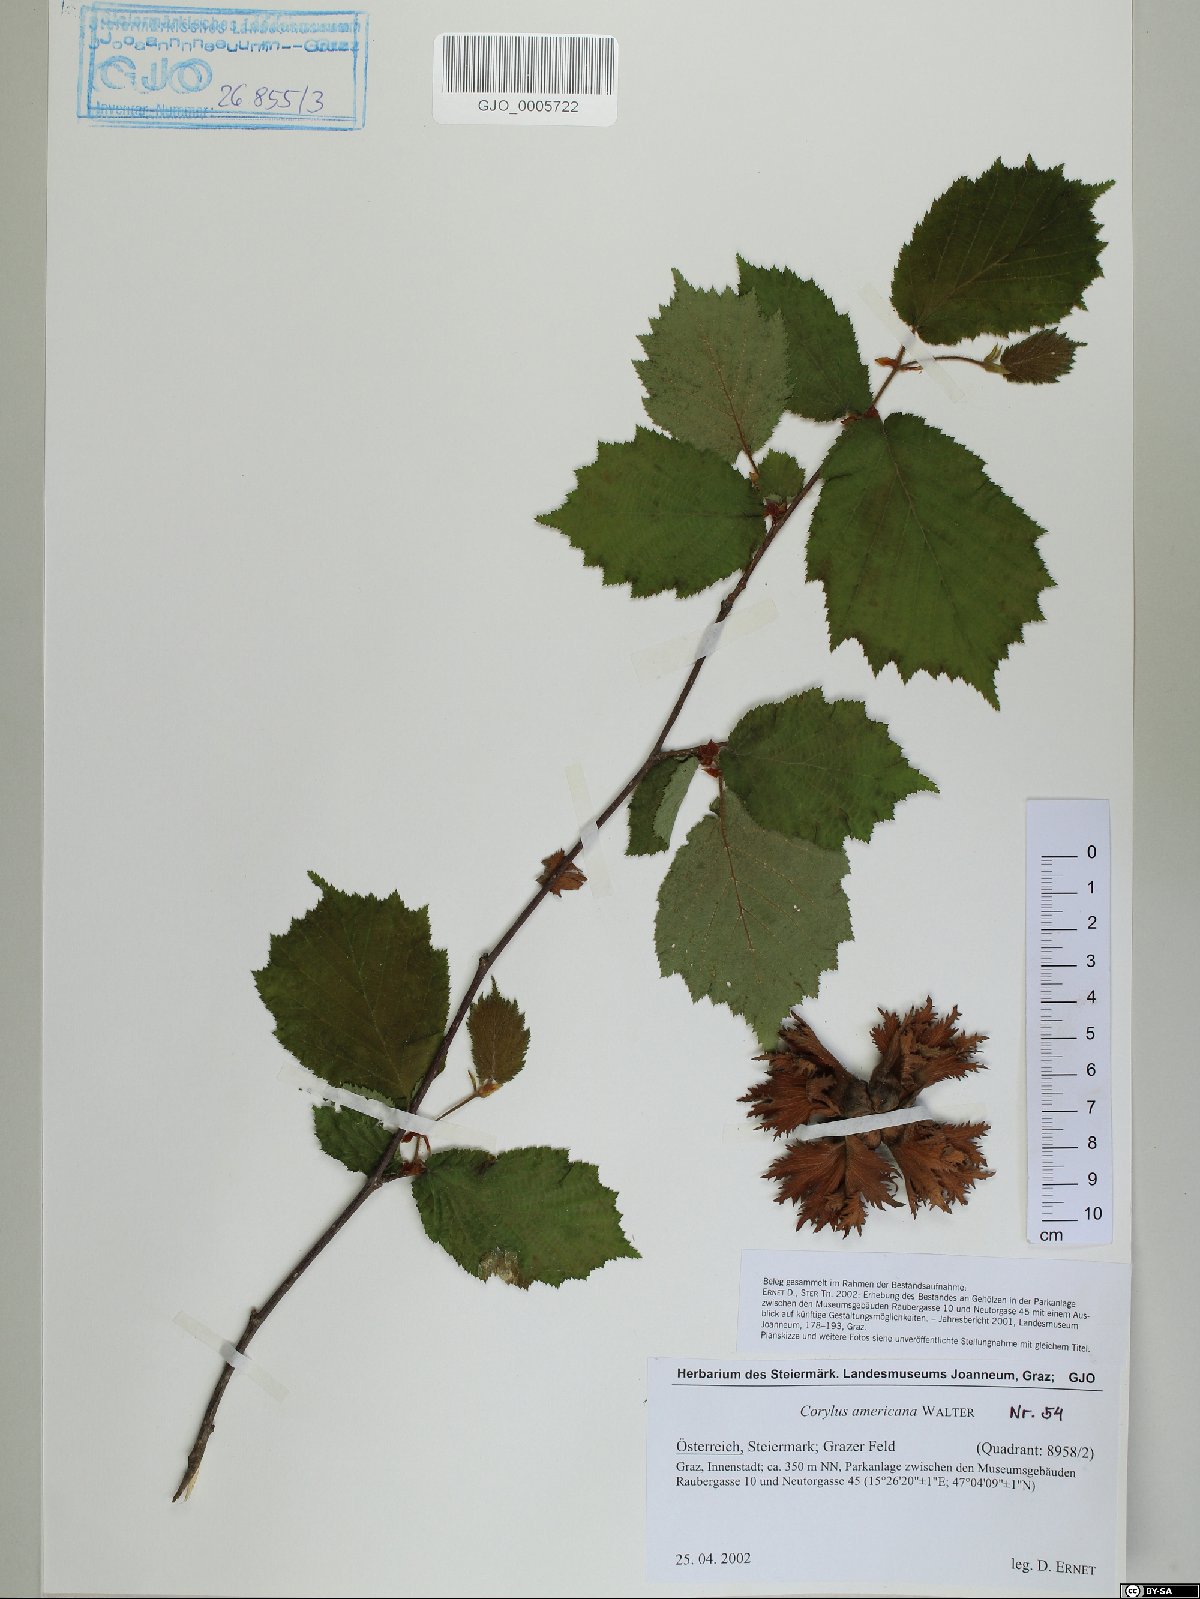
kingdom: Plantae
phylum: Tracheophyta
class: Magnoliopsida
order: Fagales
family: Betulaceae
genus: Corylus
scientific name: Corylus americana
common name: American hazel
